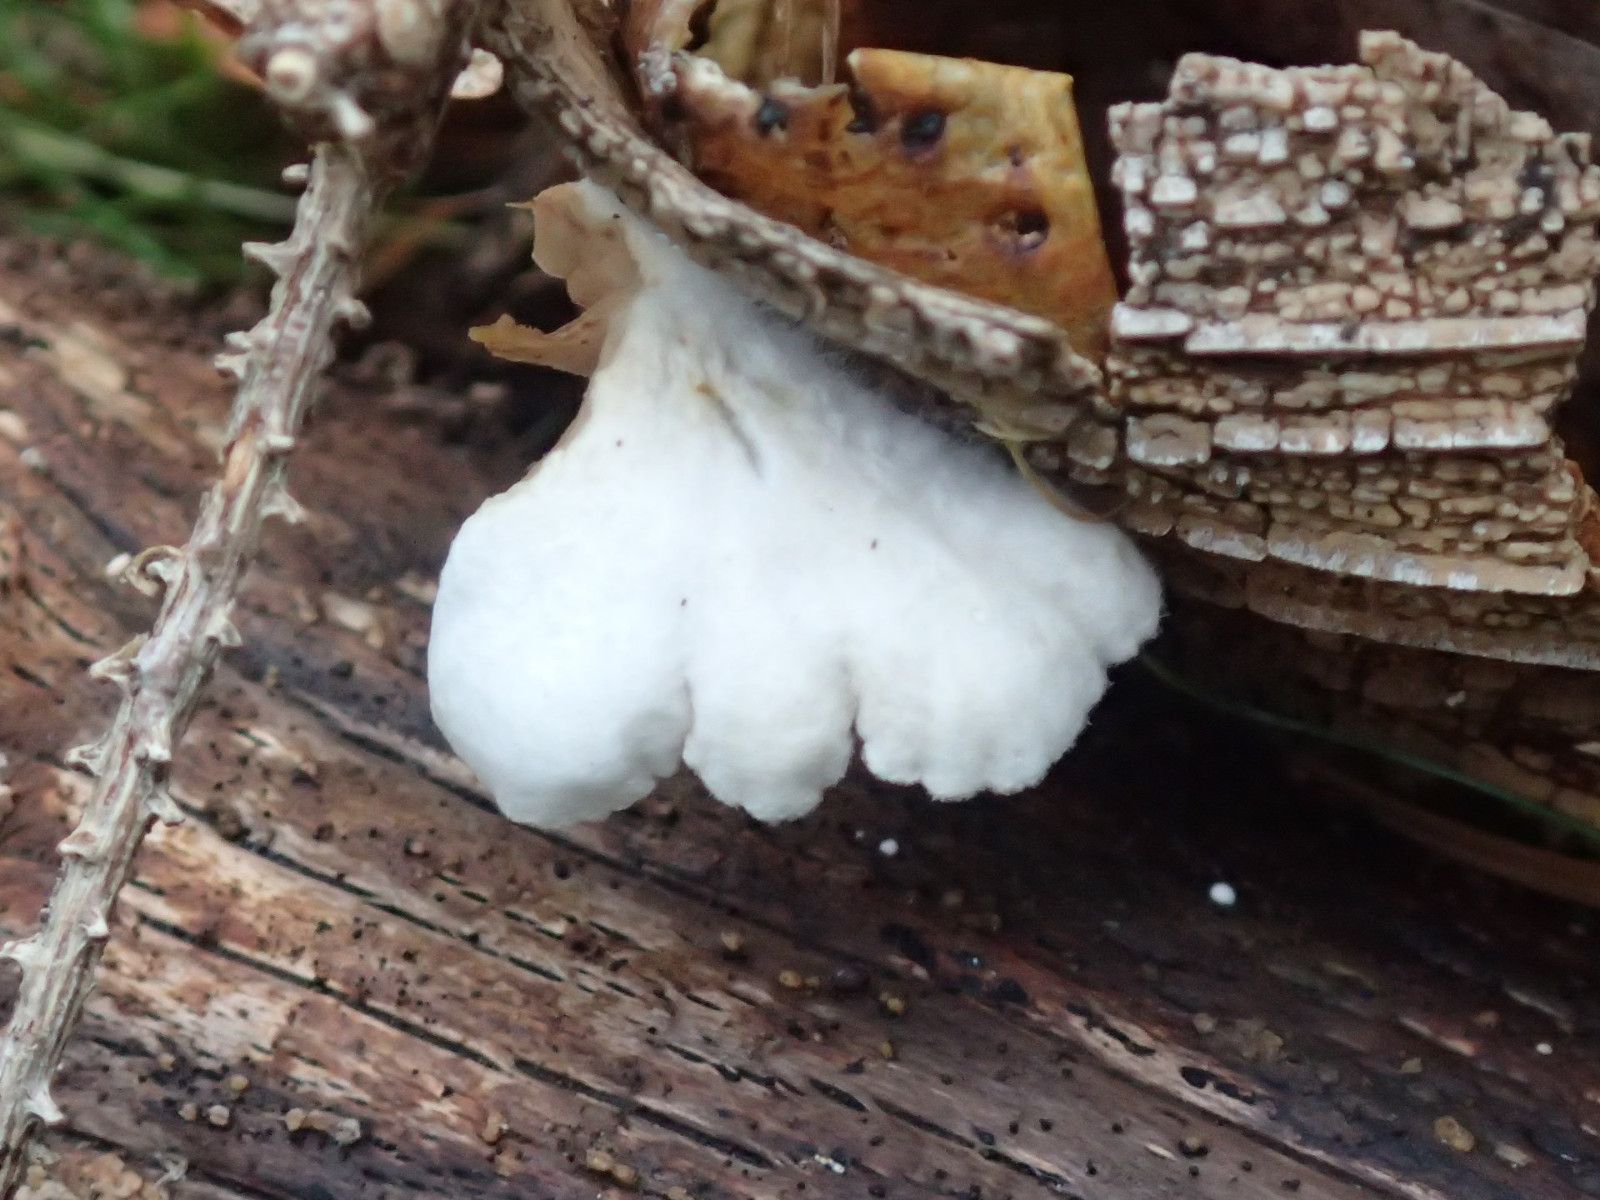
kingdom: Fungi
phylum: Basidiomycota
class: Agaricomycetes
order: Agaricales
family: Crepidotaceae
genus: Crepidotus
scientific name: Crepidotus
